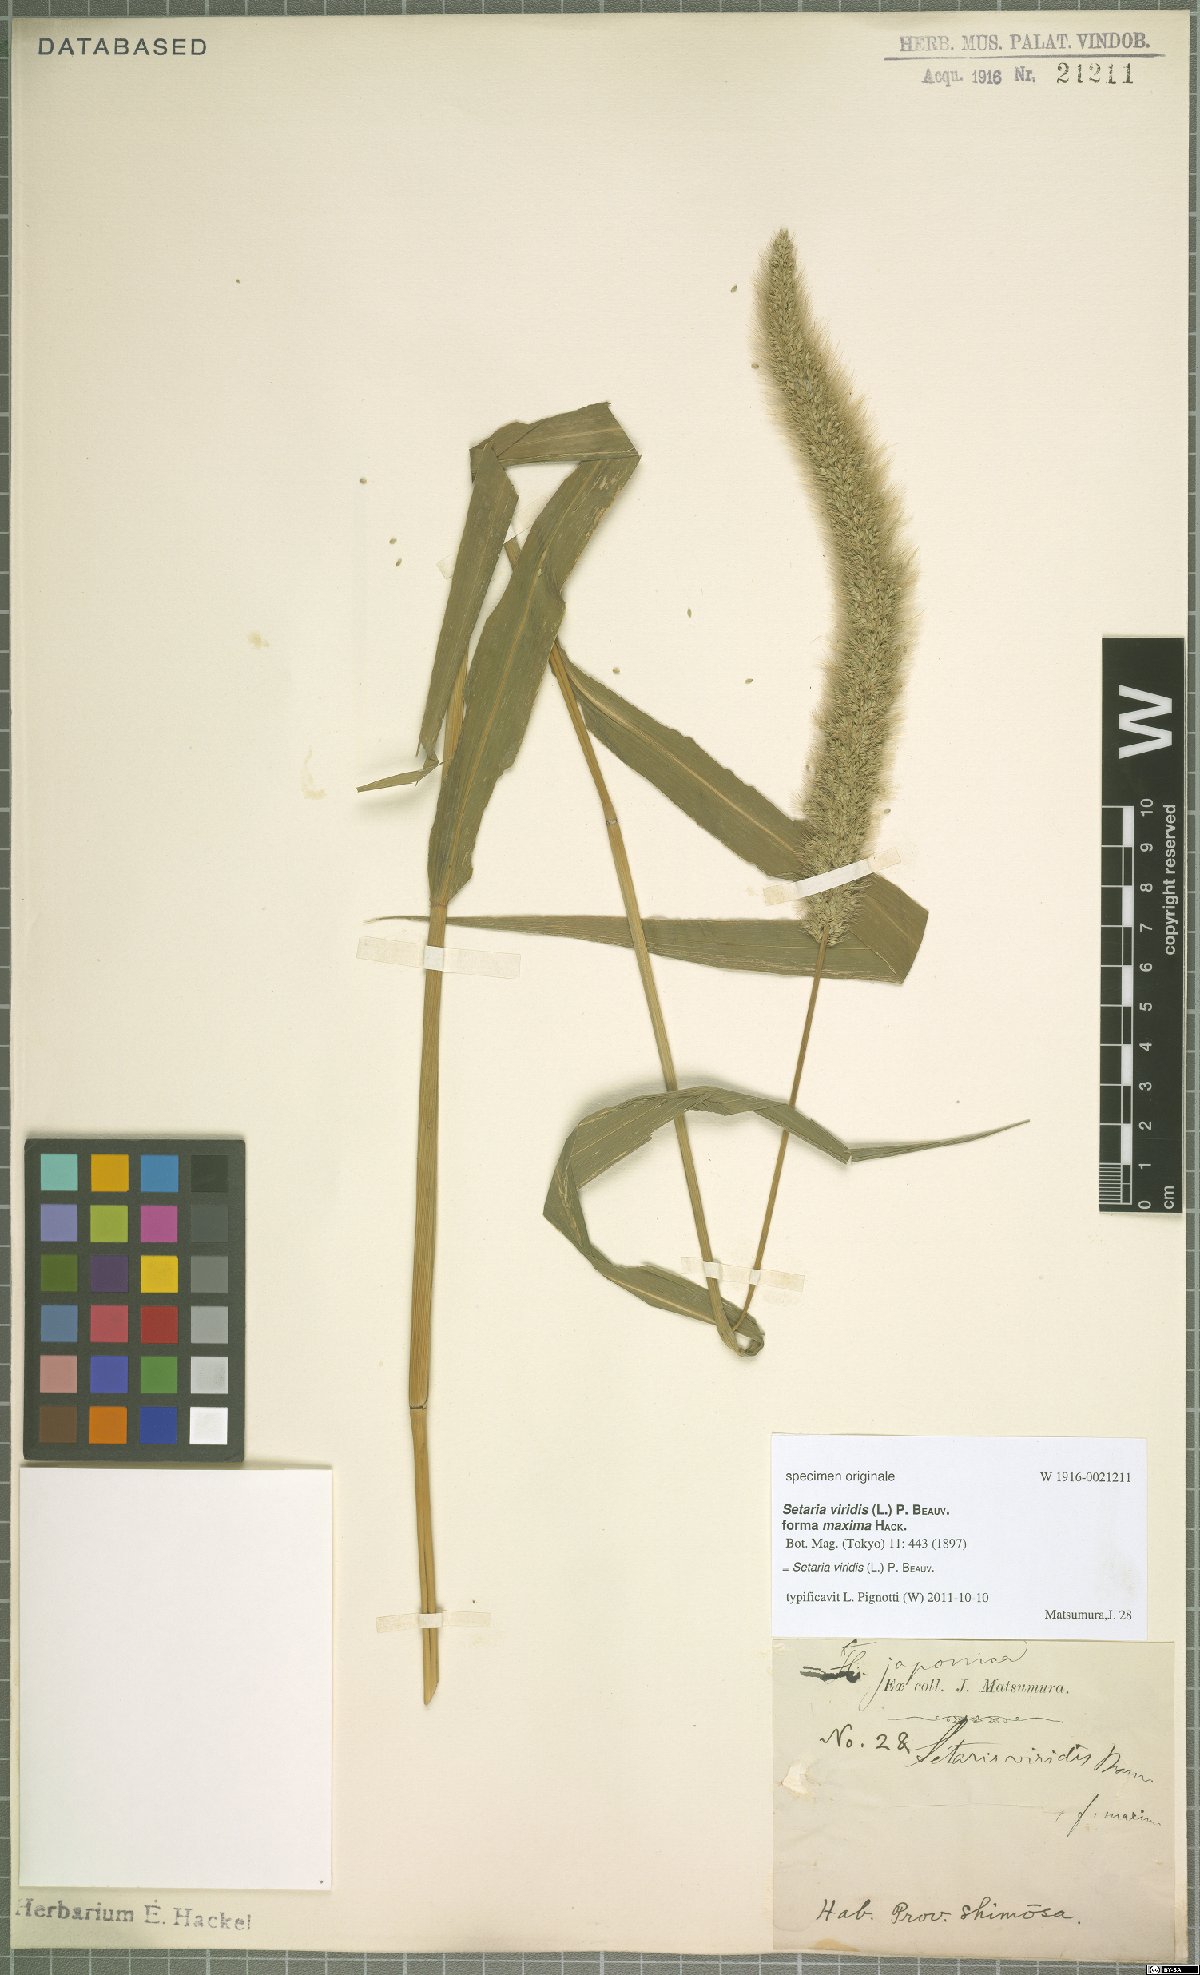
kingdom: Plantae
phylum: Tracheophyta
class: Liliopsida
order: Poales
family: Poaceae
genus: Setaria
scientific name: Setaria viridis
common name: Green bristlegrass
